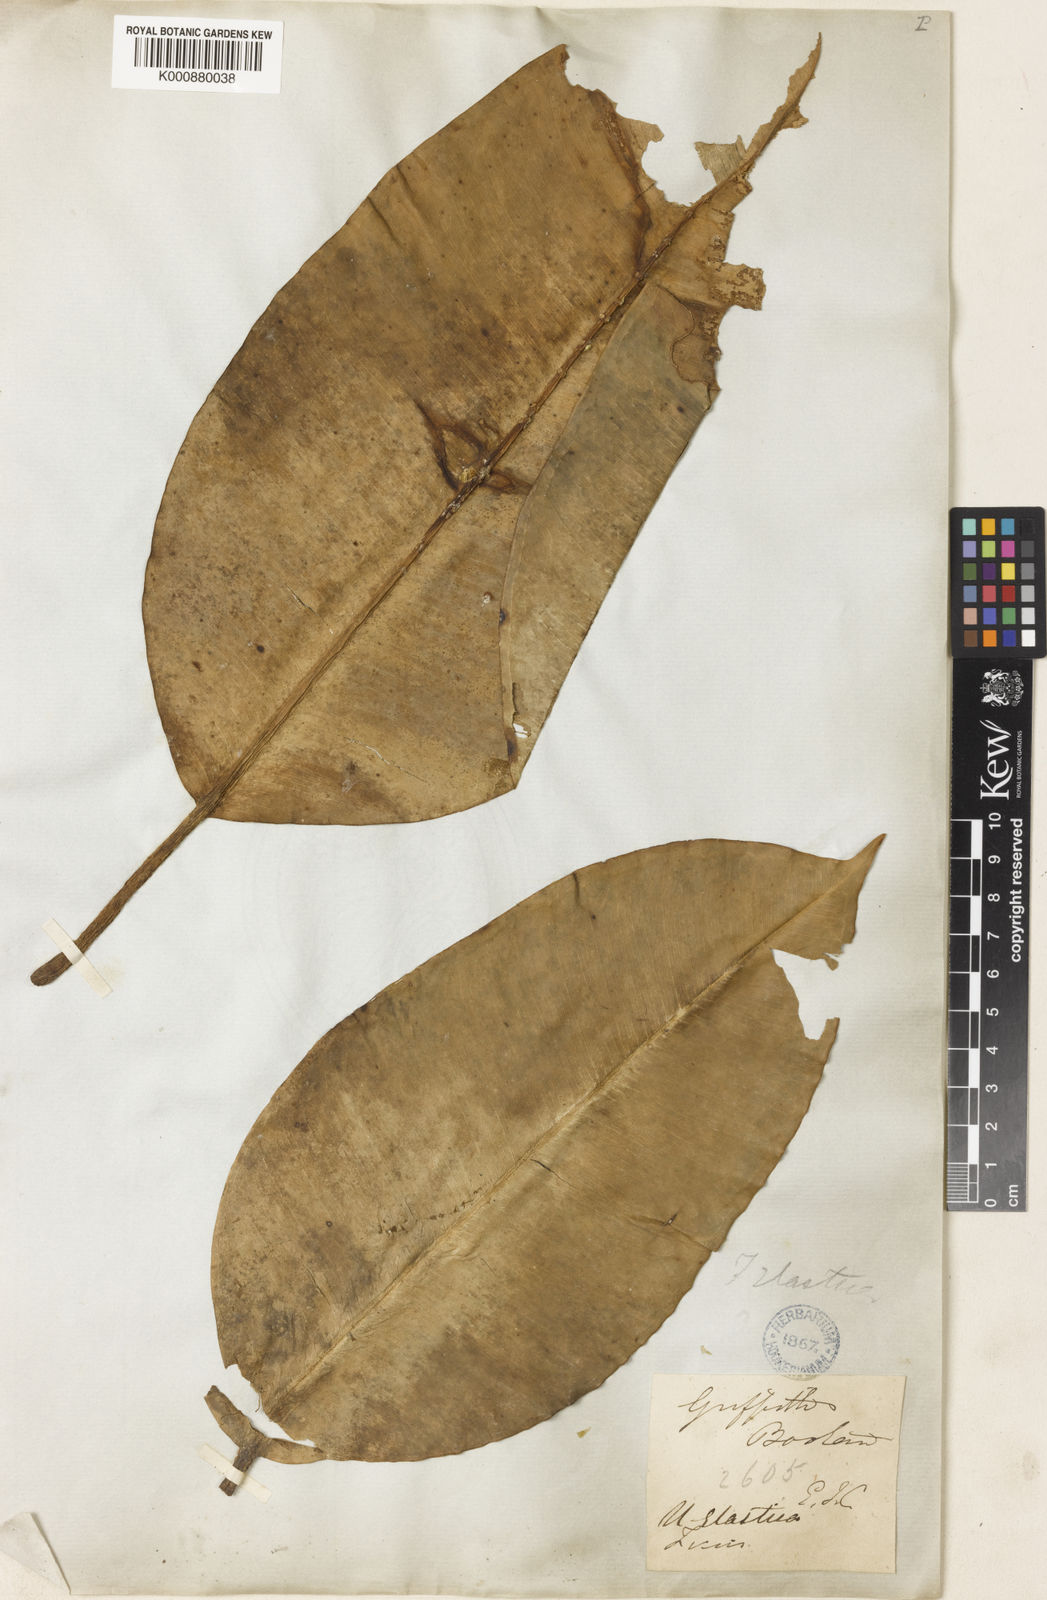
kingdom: Plantae
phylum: Tracheophyta
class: Magnoliopsida
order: Rosales
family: Moraceae
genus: Ficus
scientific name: Ficus
